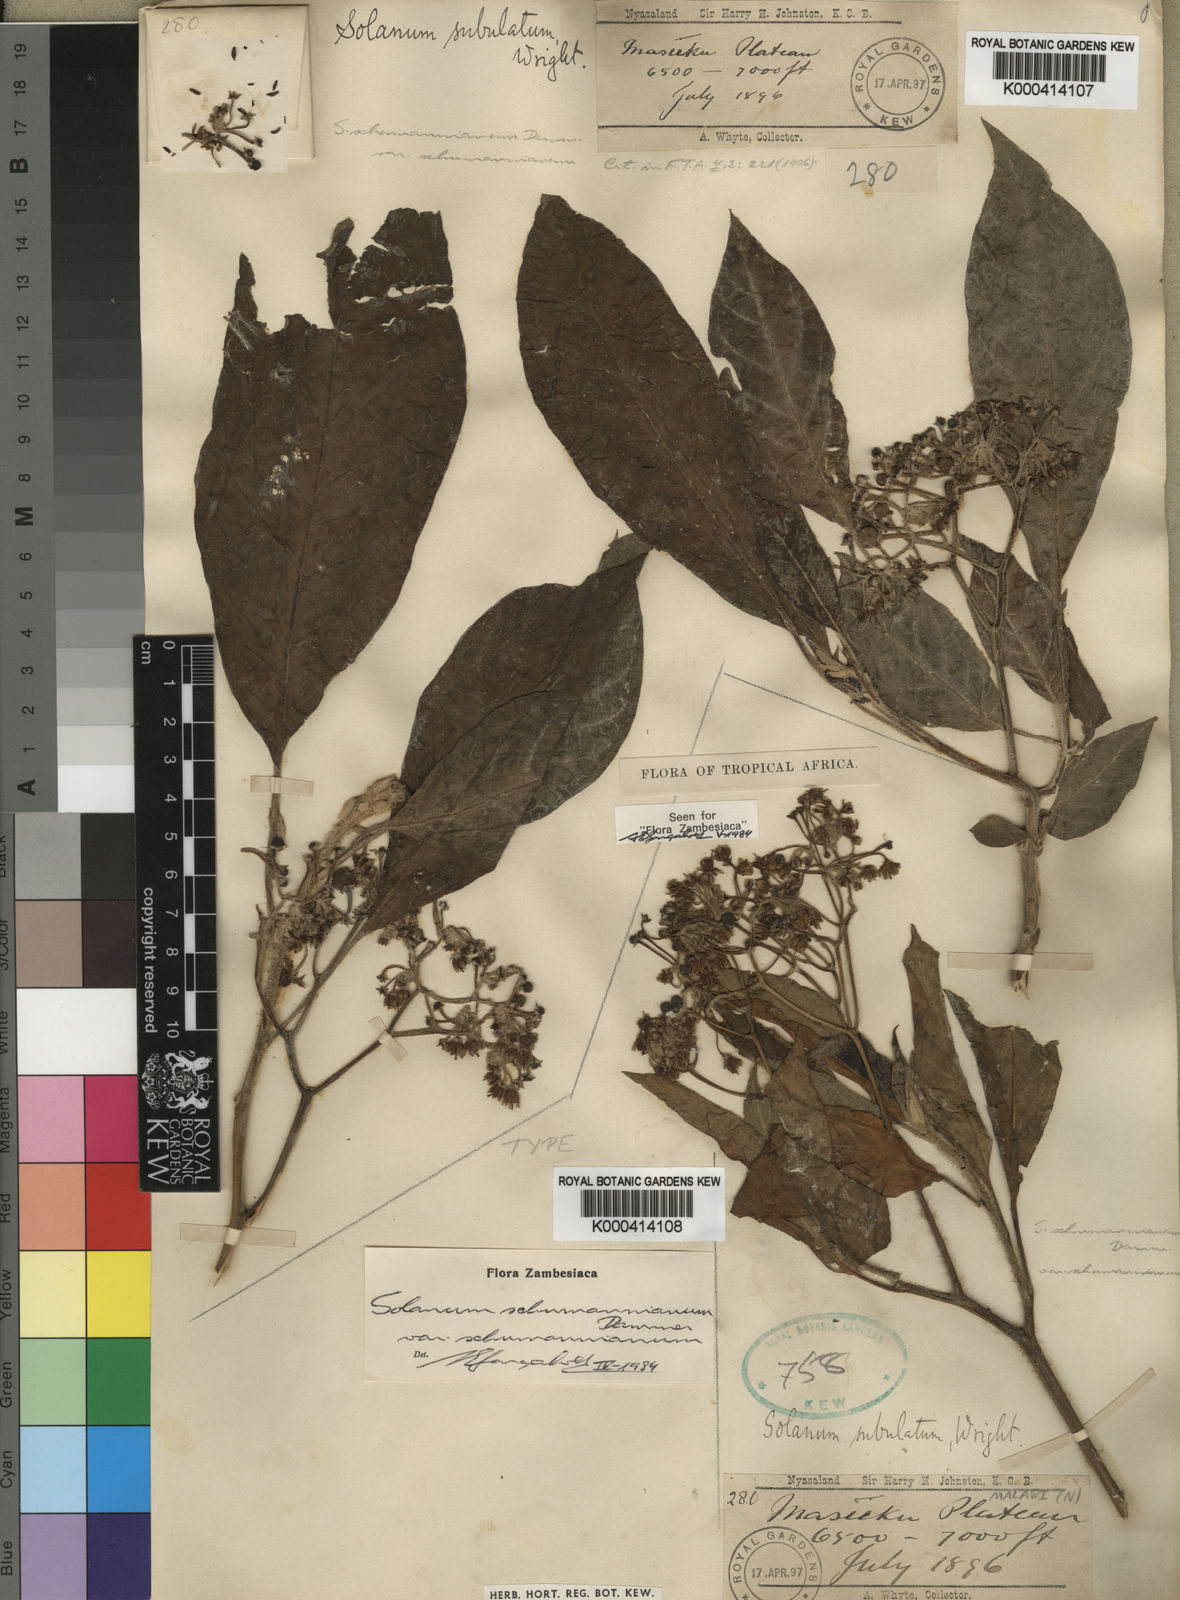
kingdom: Plantae
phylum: Tracheophyta
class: Magnoliopsida
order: Solanales
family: Solanaceae
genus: Solanum
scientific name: Solanum schumannianum
